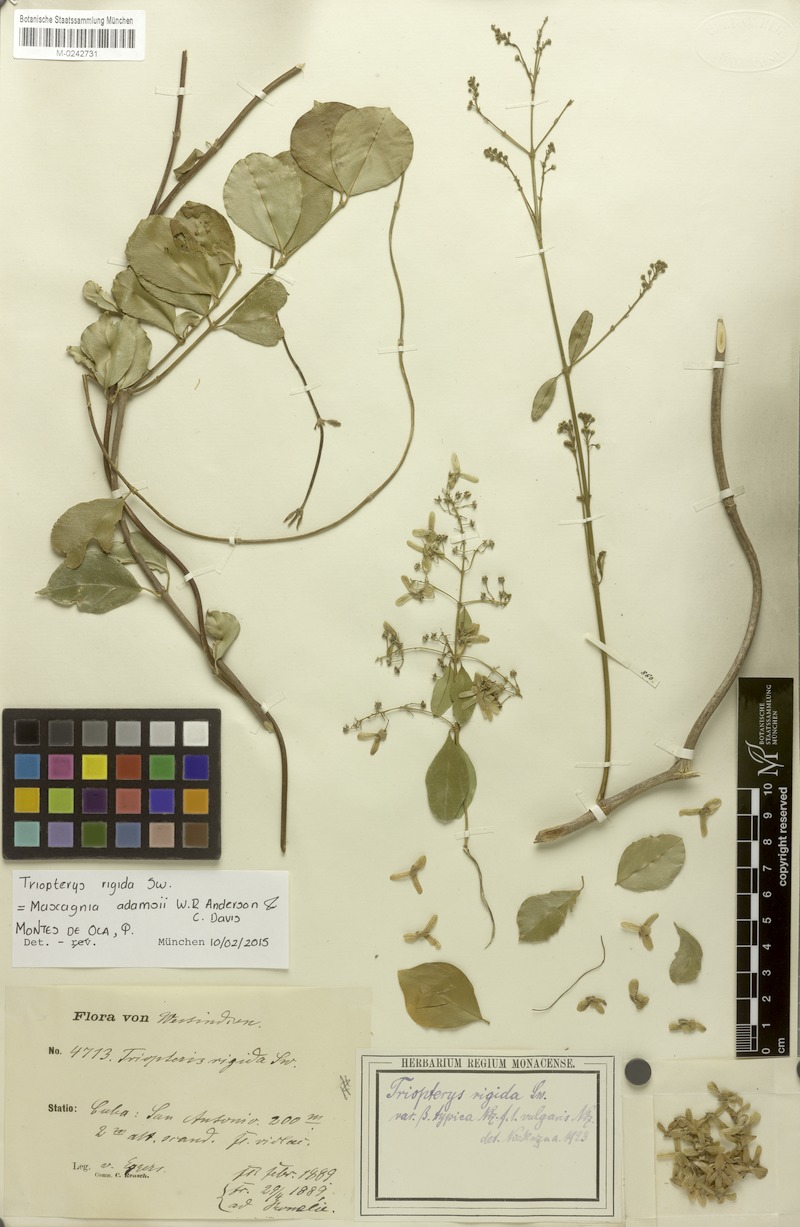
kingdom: Plantae
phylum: Tracheophyta
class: Magnoliopsida
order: Malpighiales
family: Malpighiaceae
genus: Mascagnia
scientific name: Mascagnia adamsii
